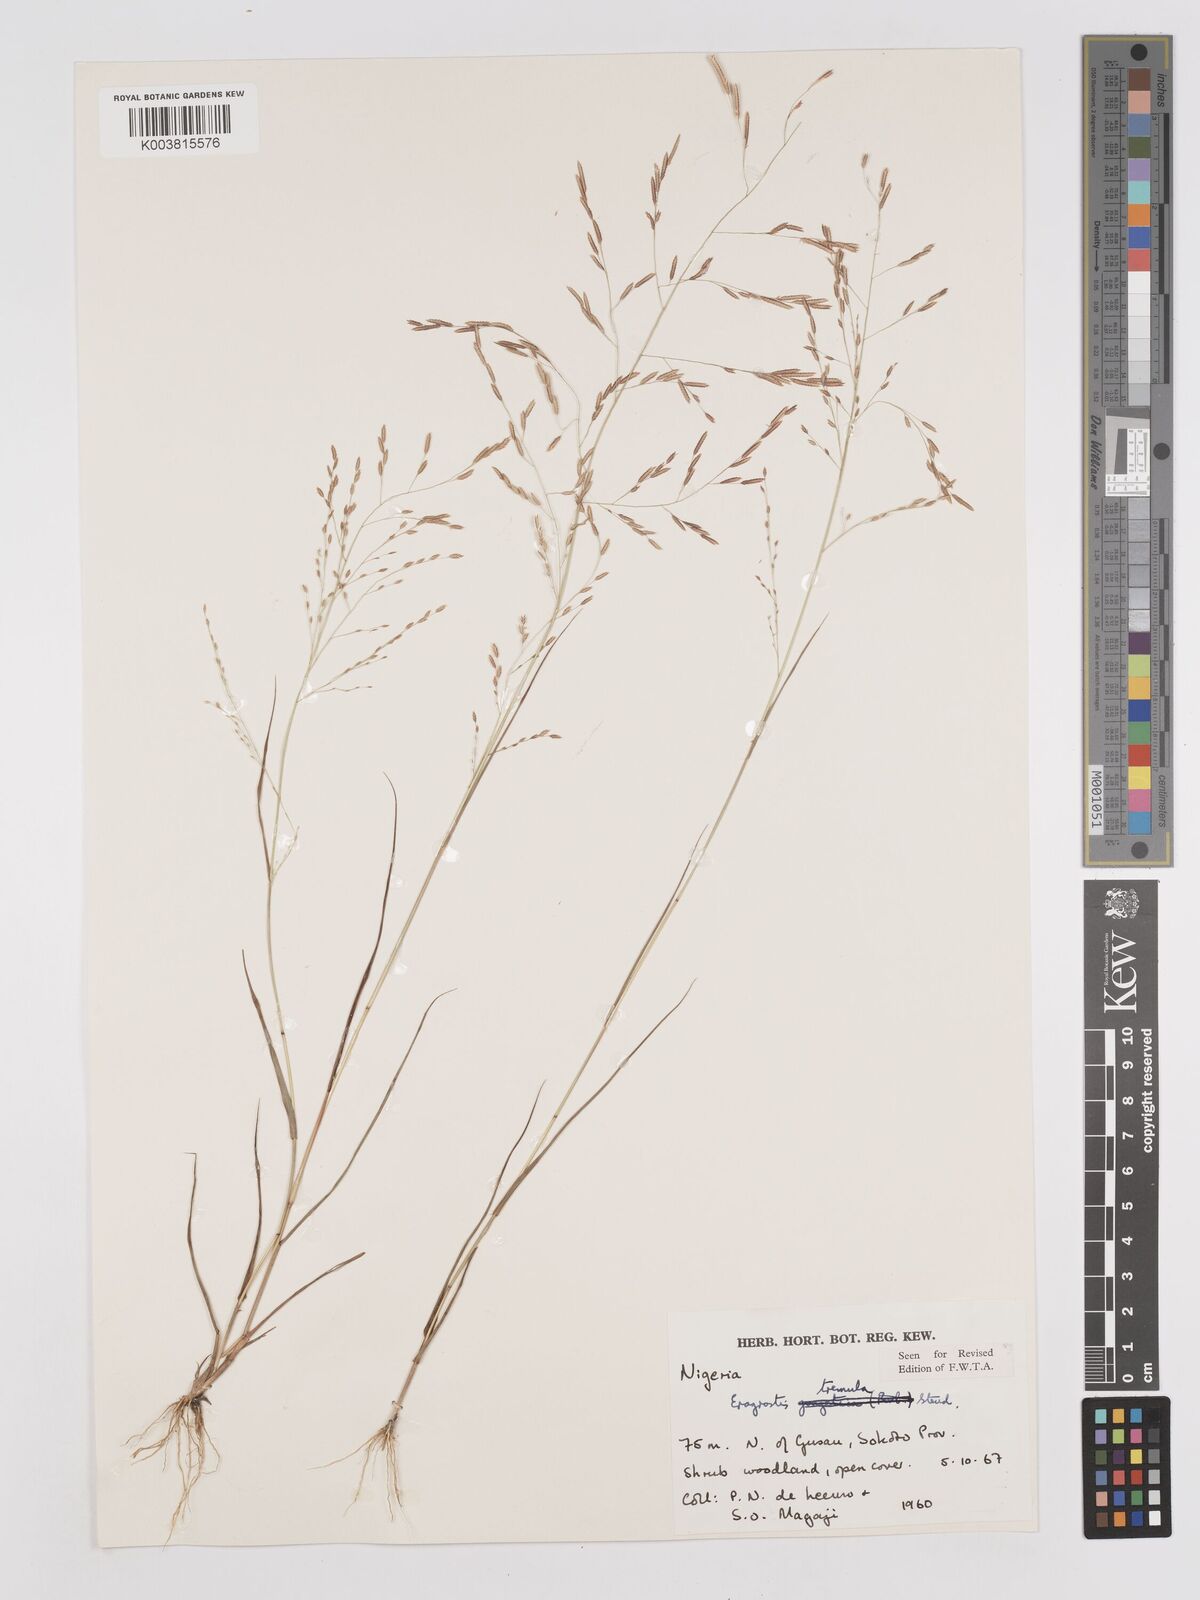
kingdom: Plantae
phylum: Tracheophyta
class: Liliopsida
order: Poales
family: Poaceae
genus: Eragrostis
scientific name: Eragrostis tremula
